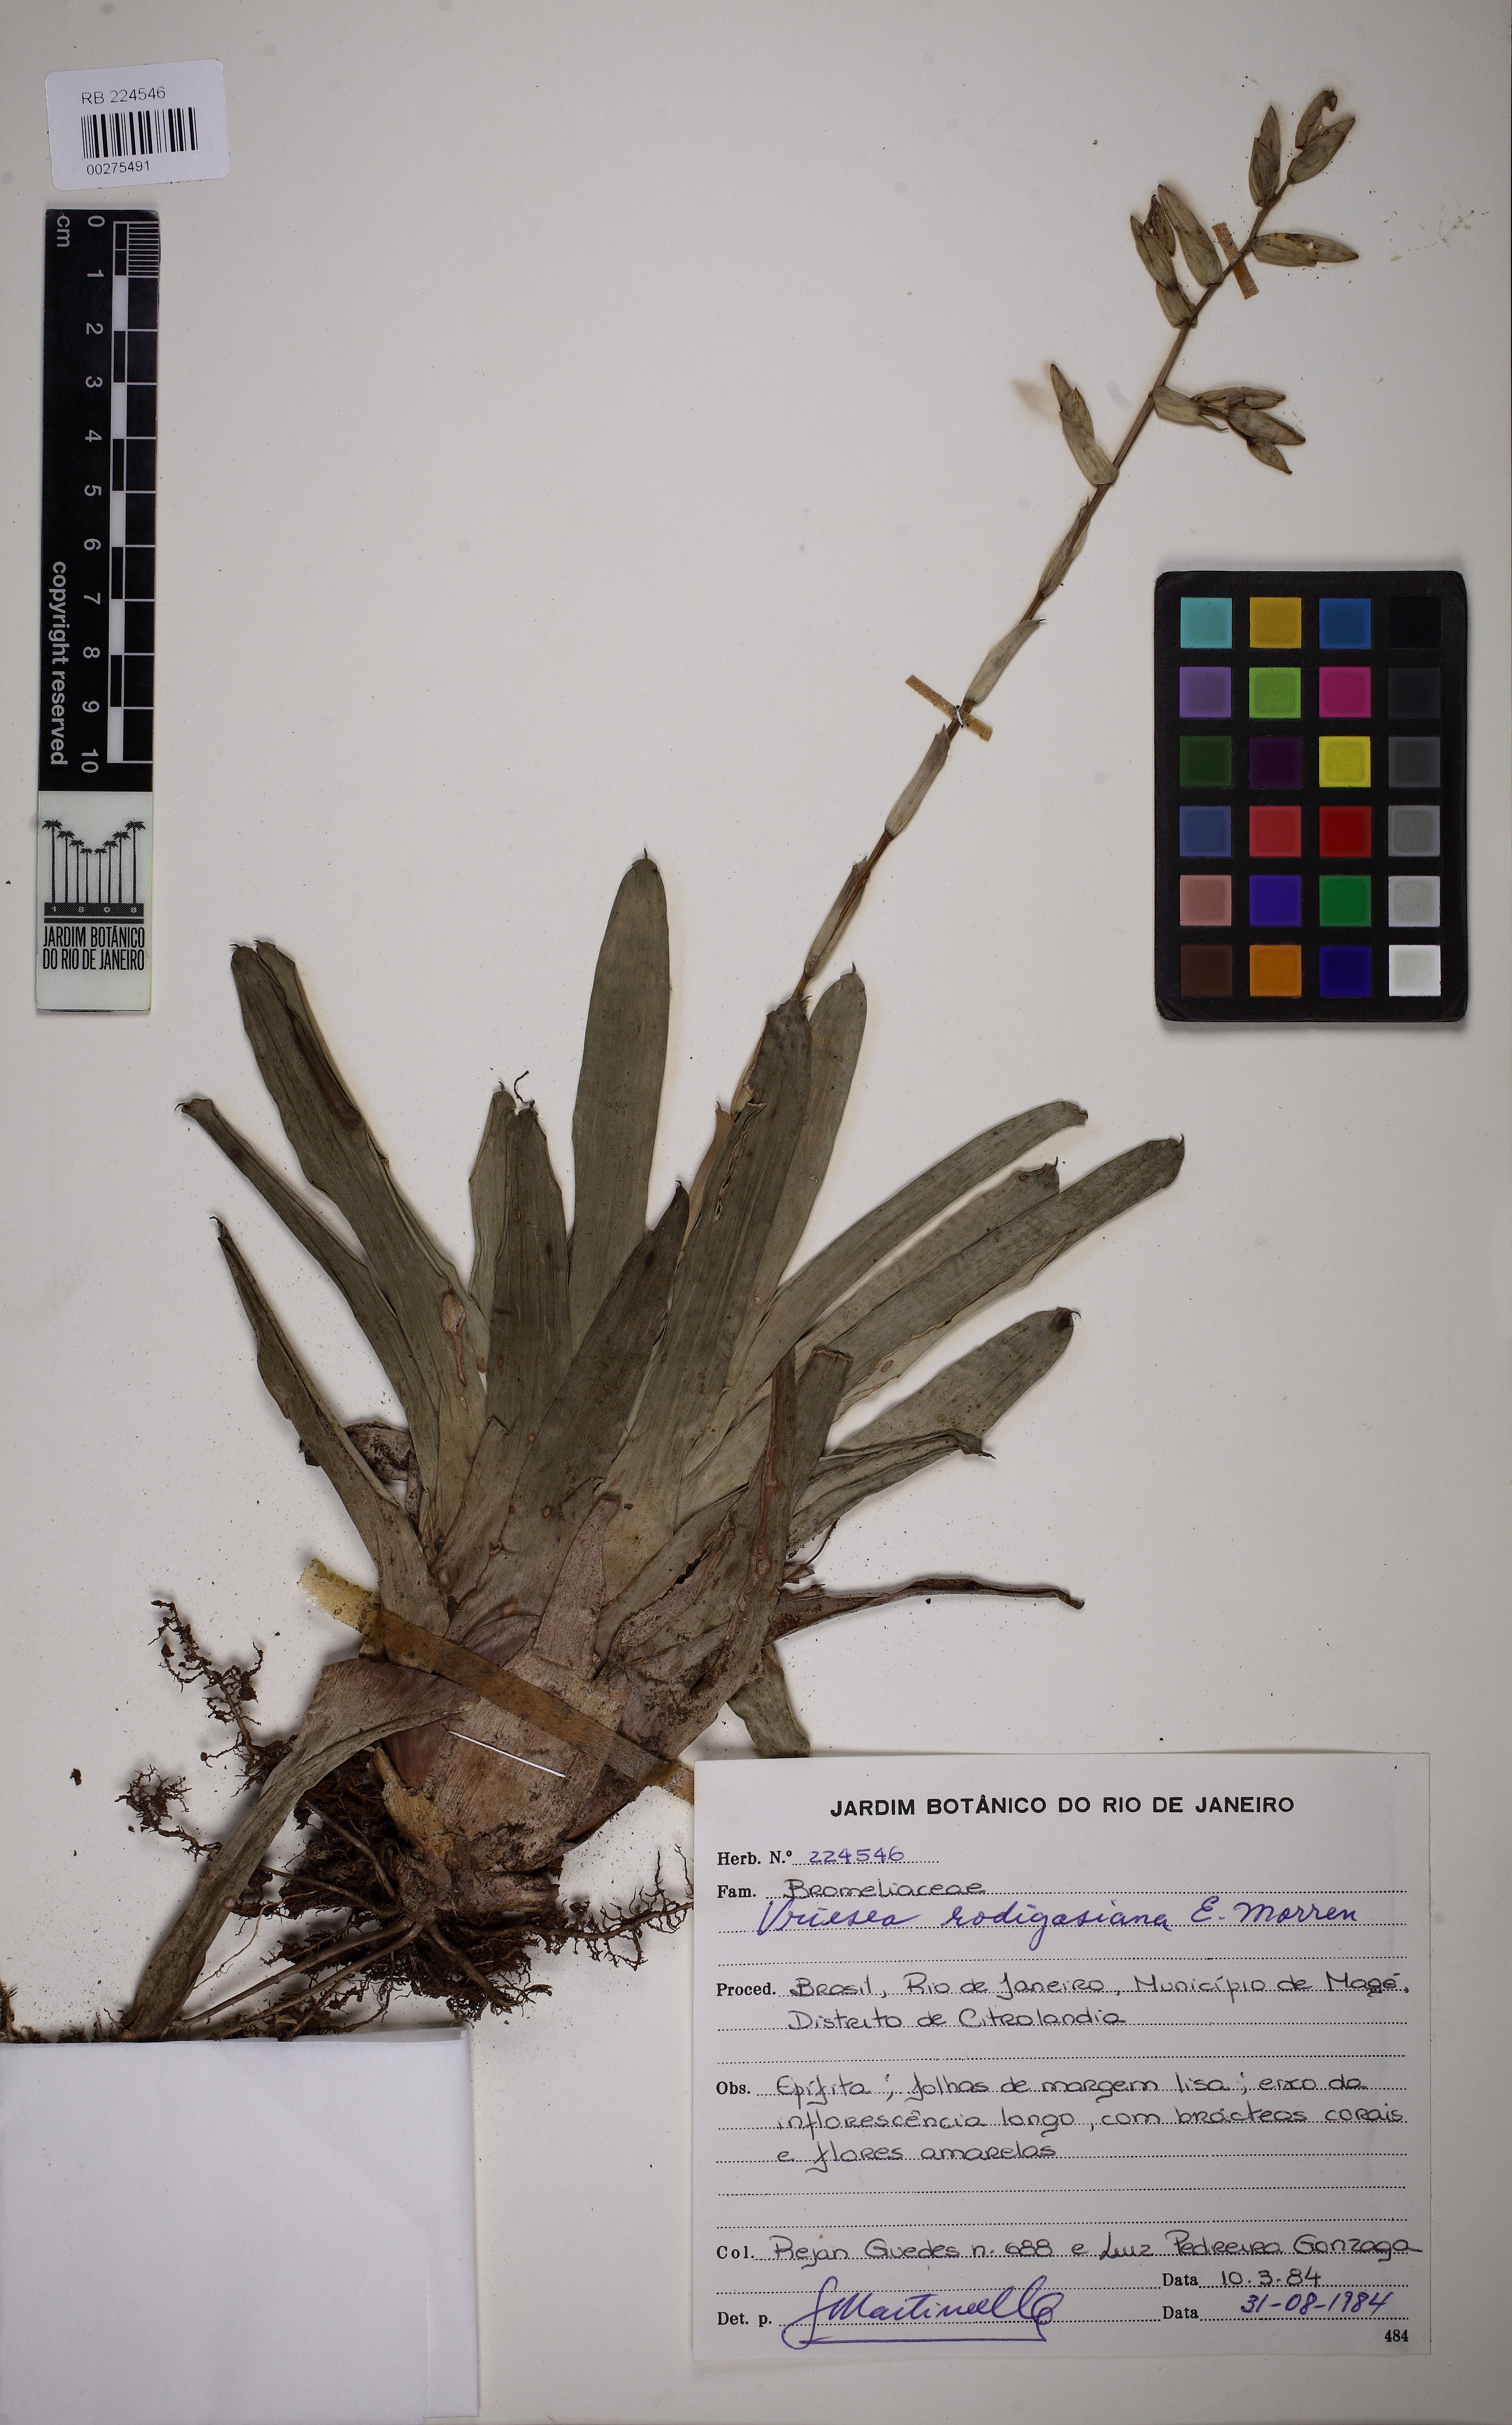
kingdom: Plantae
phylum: Tracheophyta
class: Liliopsida
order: Poales
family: Bromeliaceae
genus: Vriesea
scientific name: Vriesea rodigasiana
